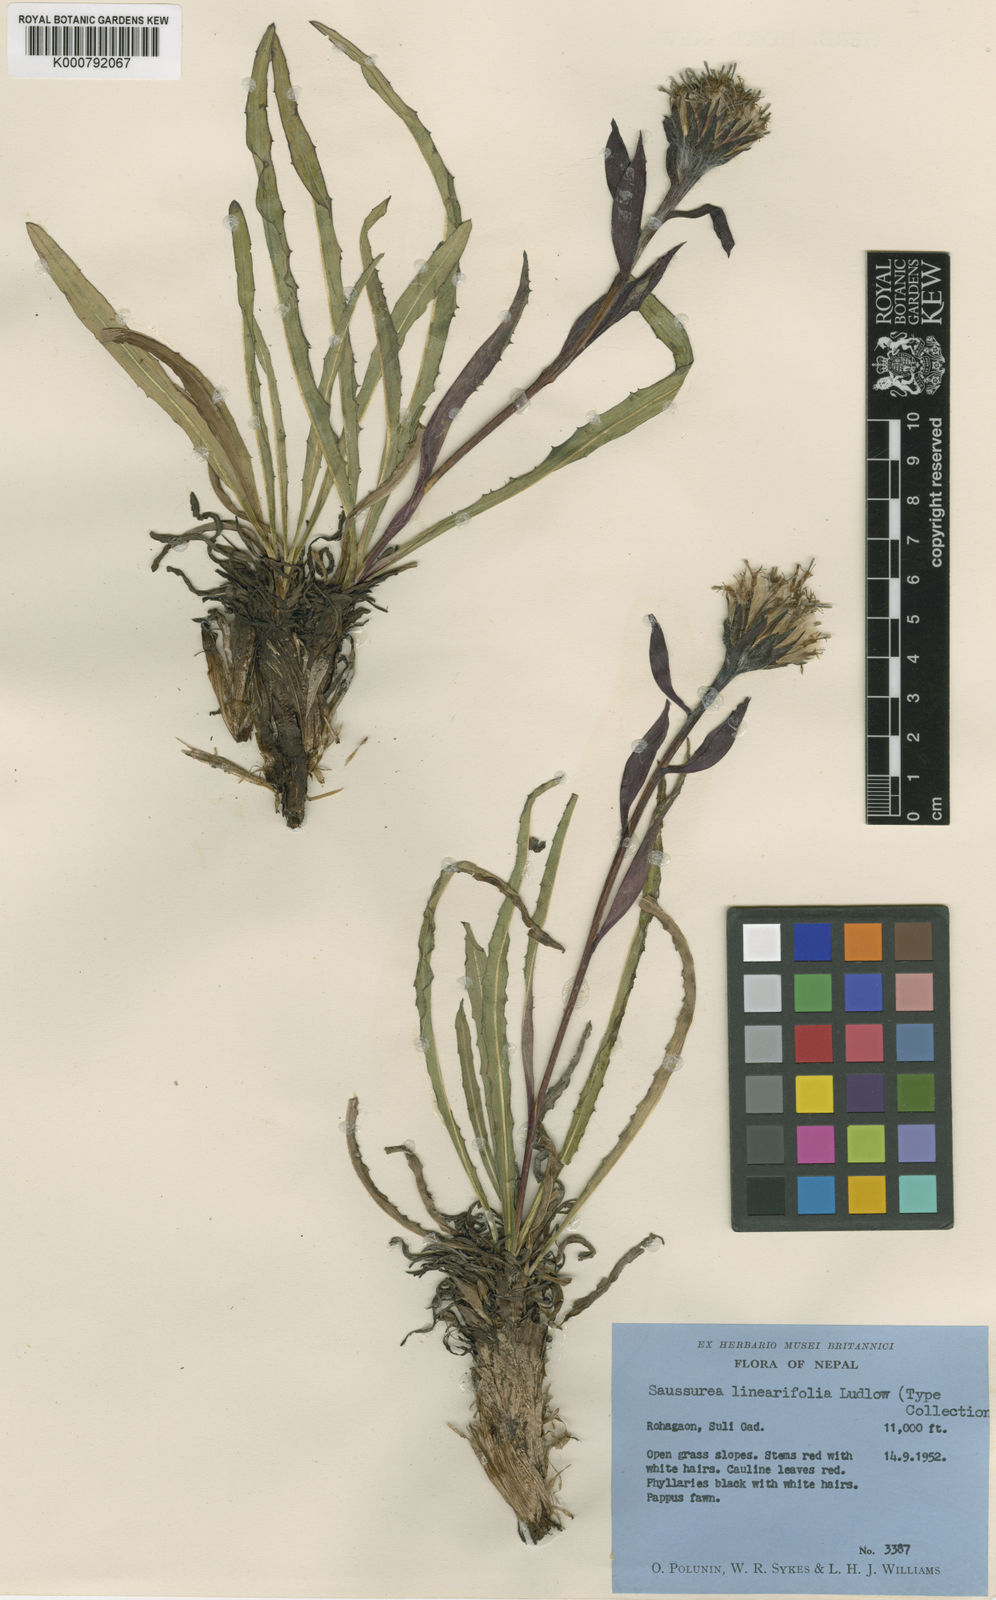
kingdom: Plantae
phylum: Tracheophyta
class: Magnoliopsida
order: Asterales
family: Asteraceae
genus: Saussurea
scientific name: Saussurea linearifolia
